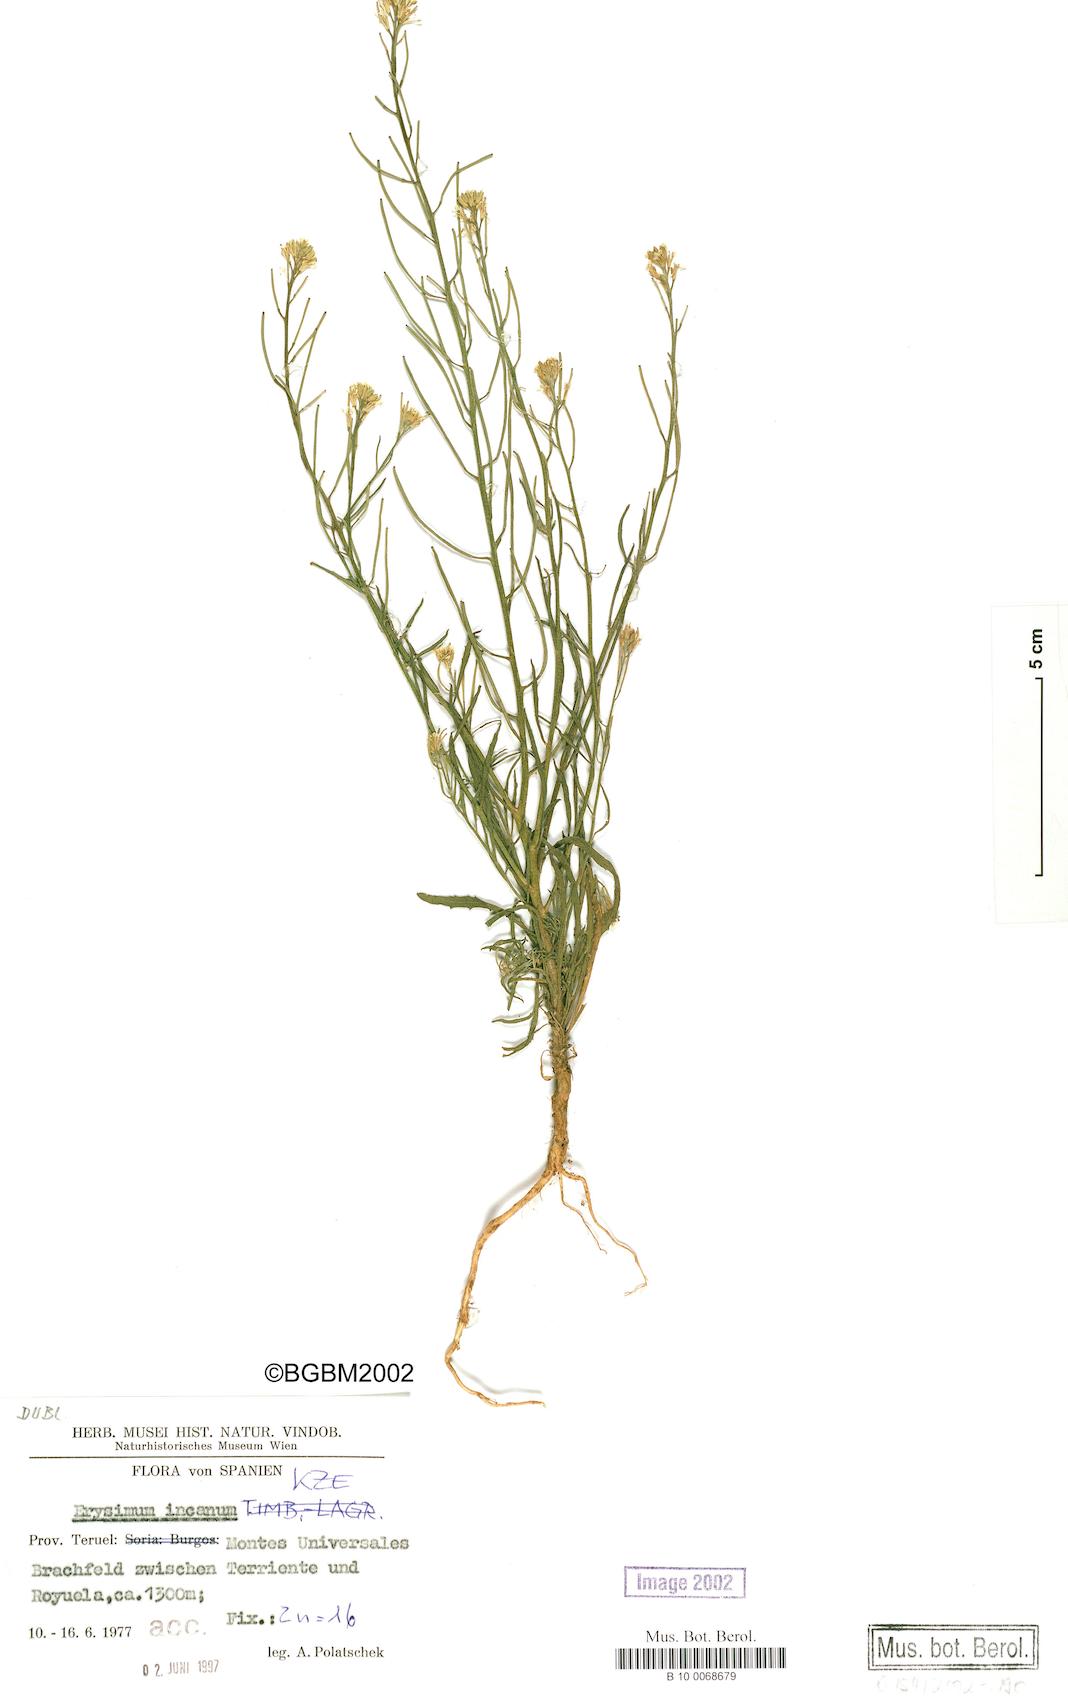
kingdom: Plantae
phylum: Tracheophyta
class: Magnoliopsida
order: Brassicales
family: Brassicaceae
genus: Erysimum
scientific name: Erysimum incanum
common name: Hoary treacle mustard
